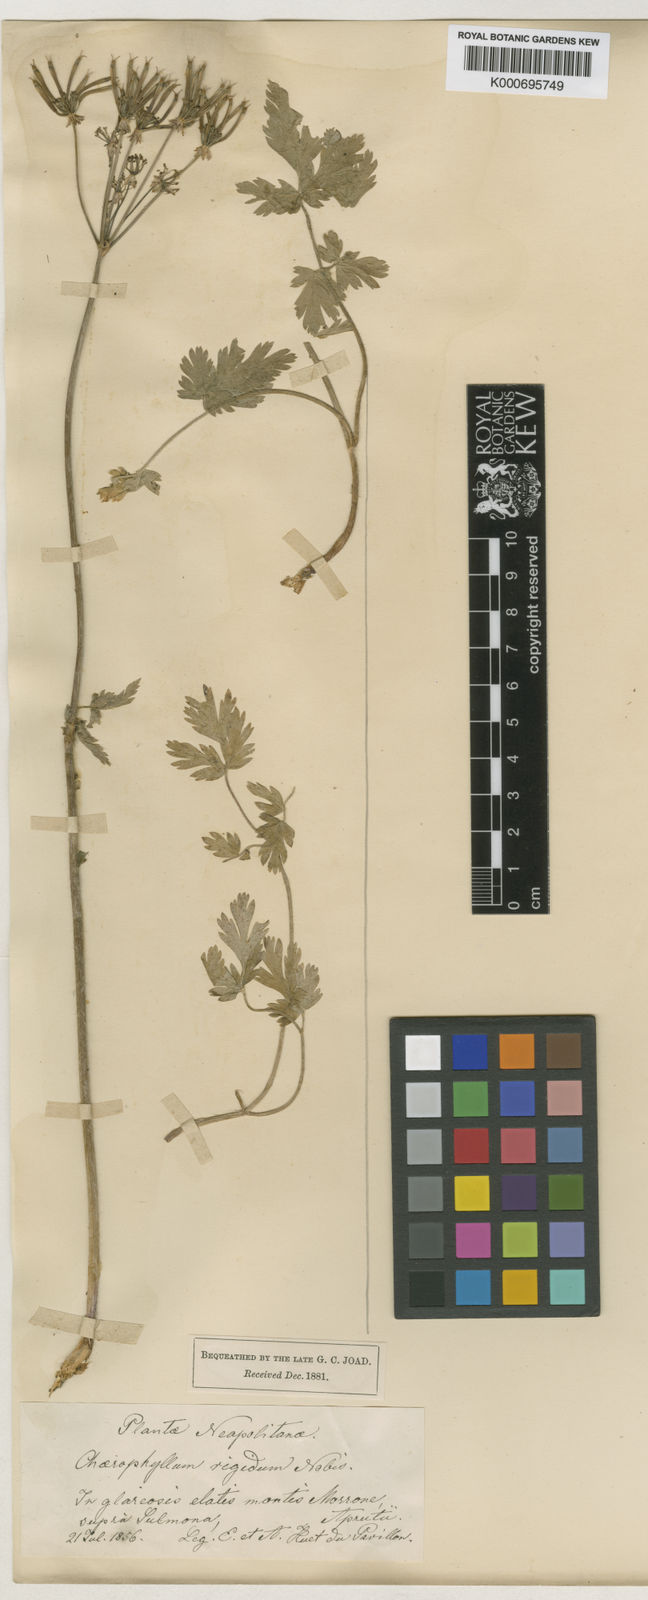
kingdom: Plantae
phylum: Tracheophyta
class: Magnoliopsida
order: Apiales
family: Apiaceae
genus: Chaerophyllum
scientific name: Chaerophyllum villarsii
